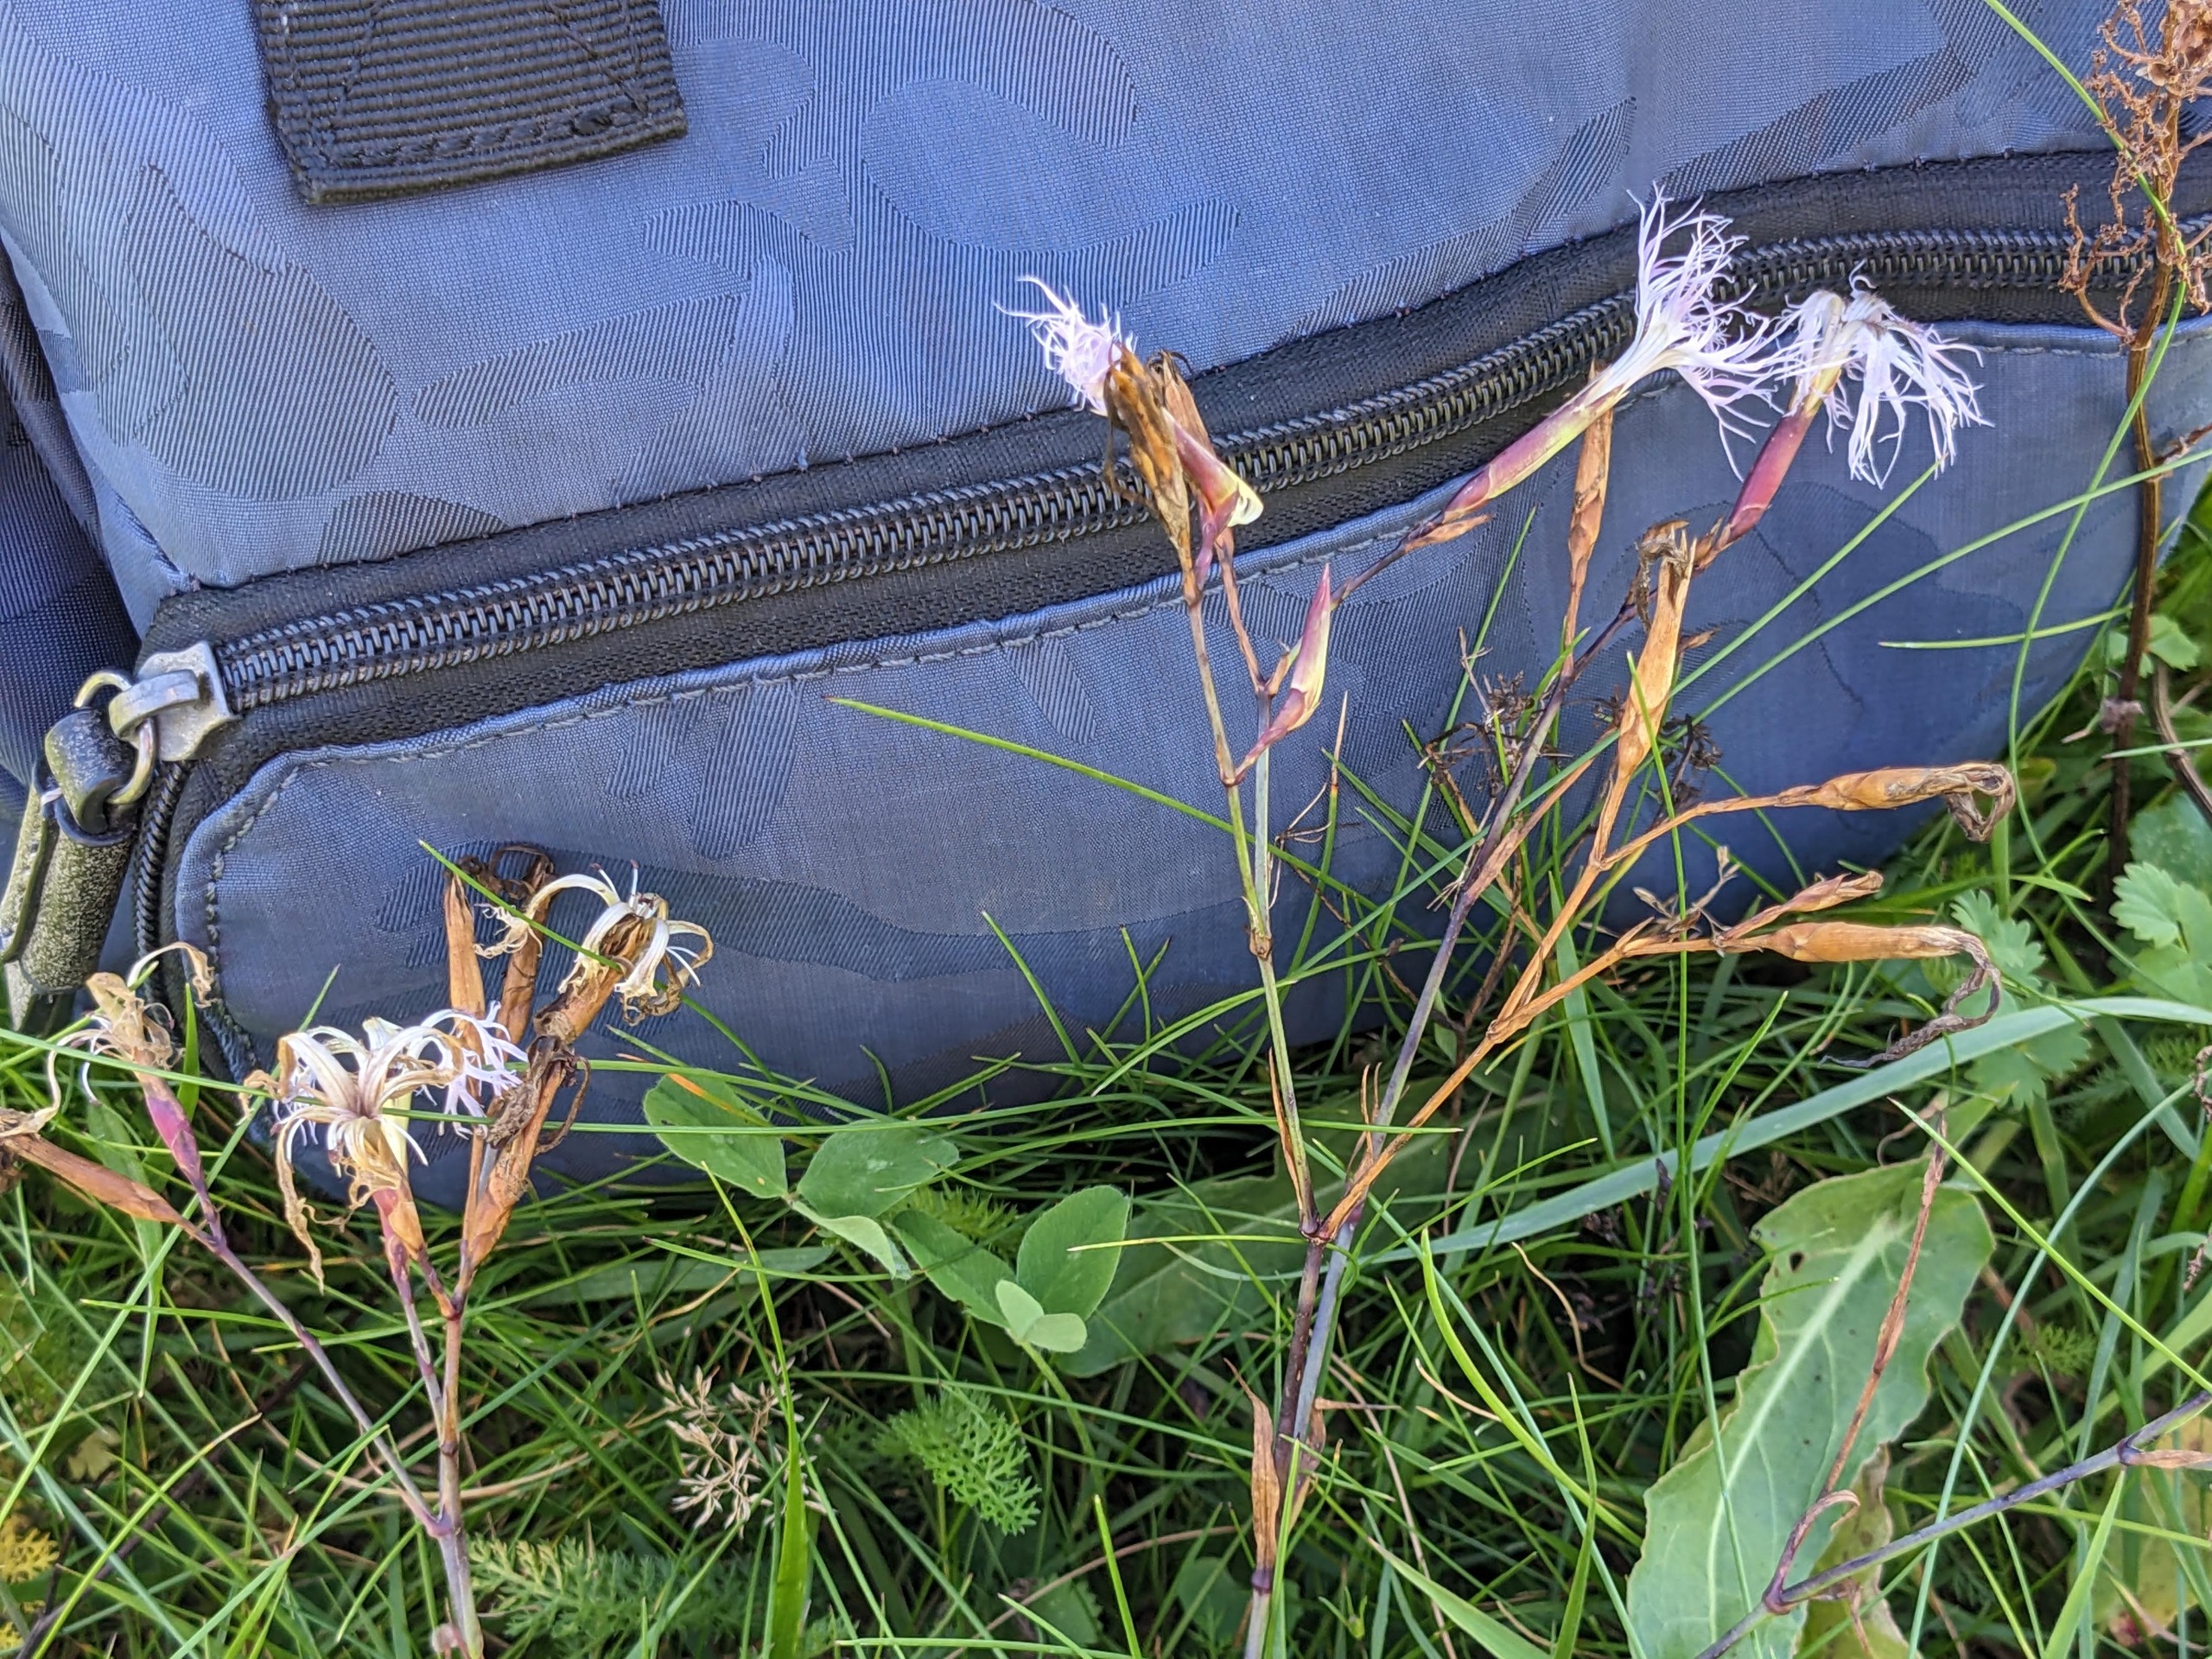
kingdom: Plantae
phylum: Tracheophyta
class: Magnoliopsida
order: Caryophyllales
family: Caryophyllaceae
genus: Dianthus
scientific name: Dianthus superbus
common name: Strand-nellike
